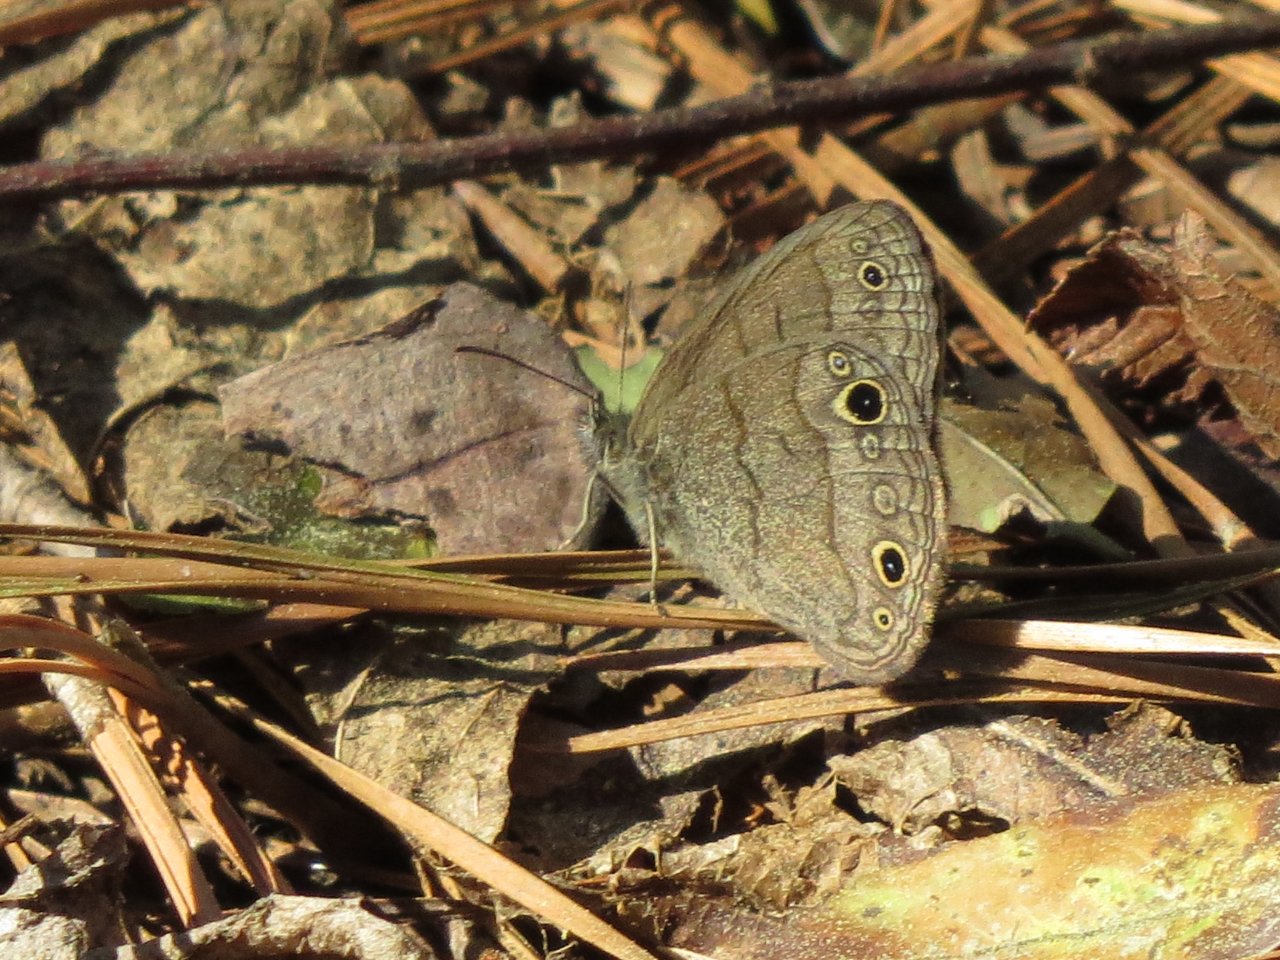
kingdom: Animalia
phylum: Arthropoda
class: Insecta
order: Lepidoptera
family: Nymphalidae
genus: Hermeuptychia
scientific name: Hermeuptychia hermes
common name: Carolina Satyr
